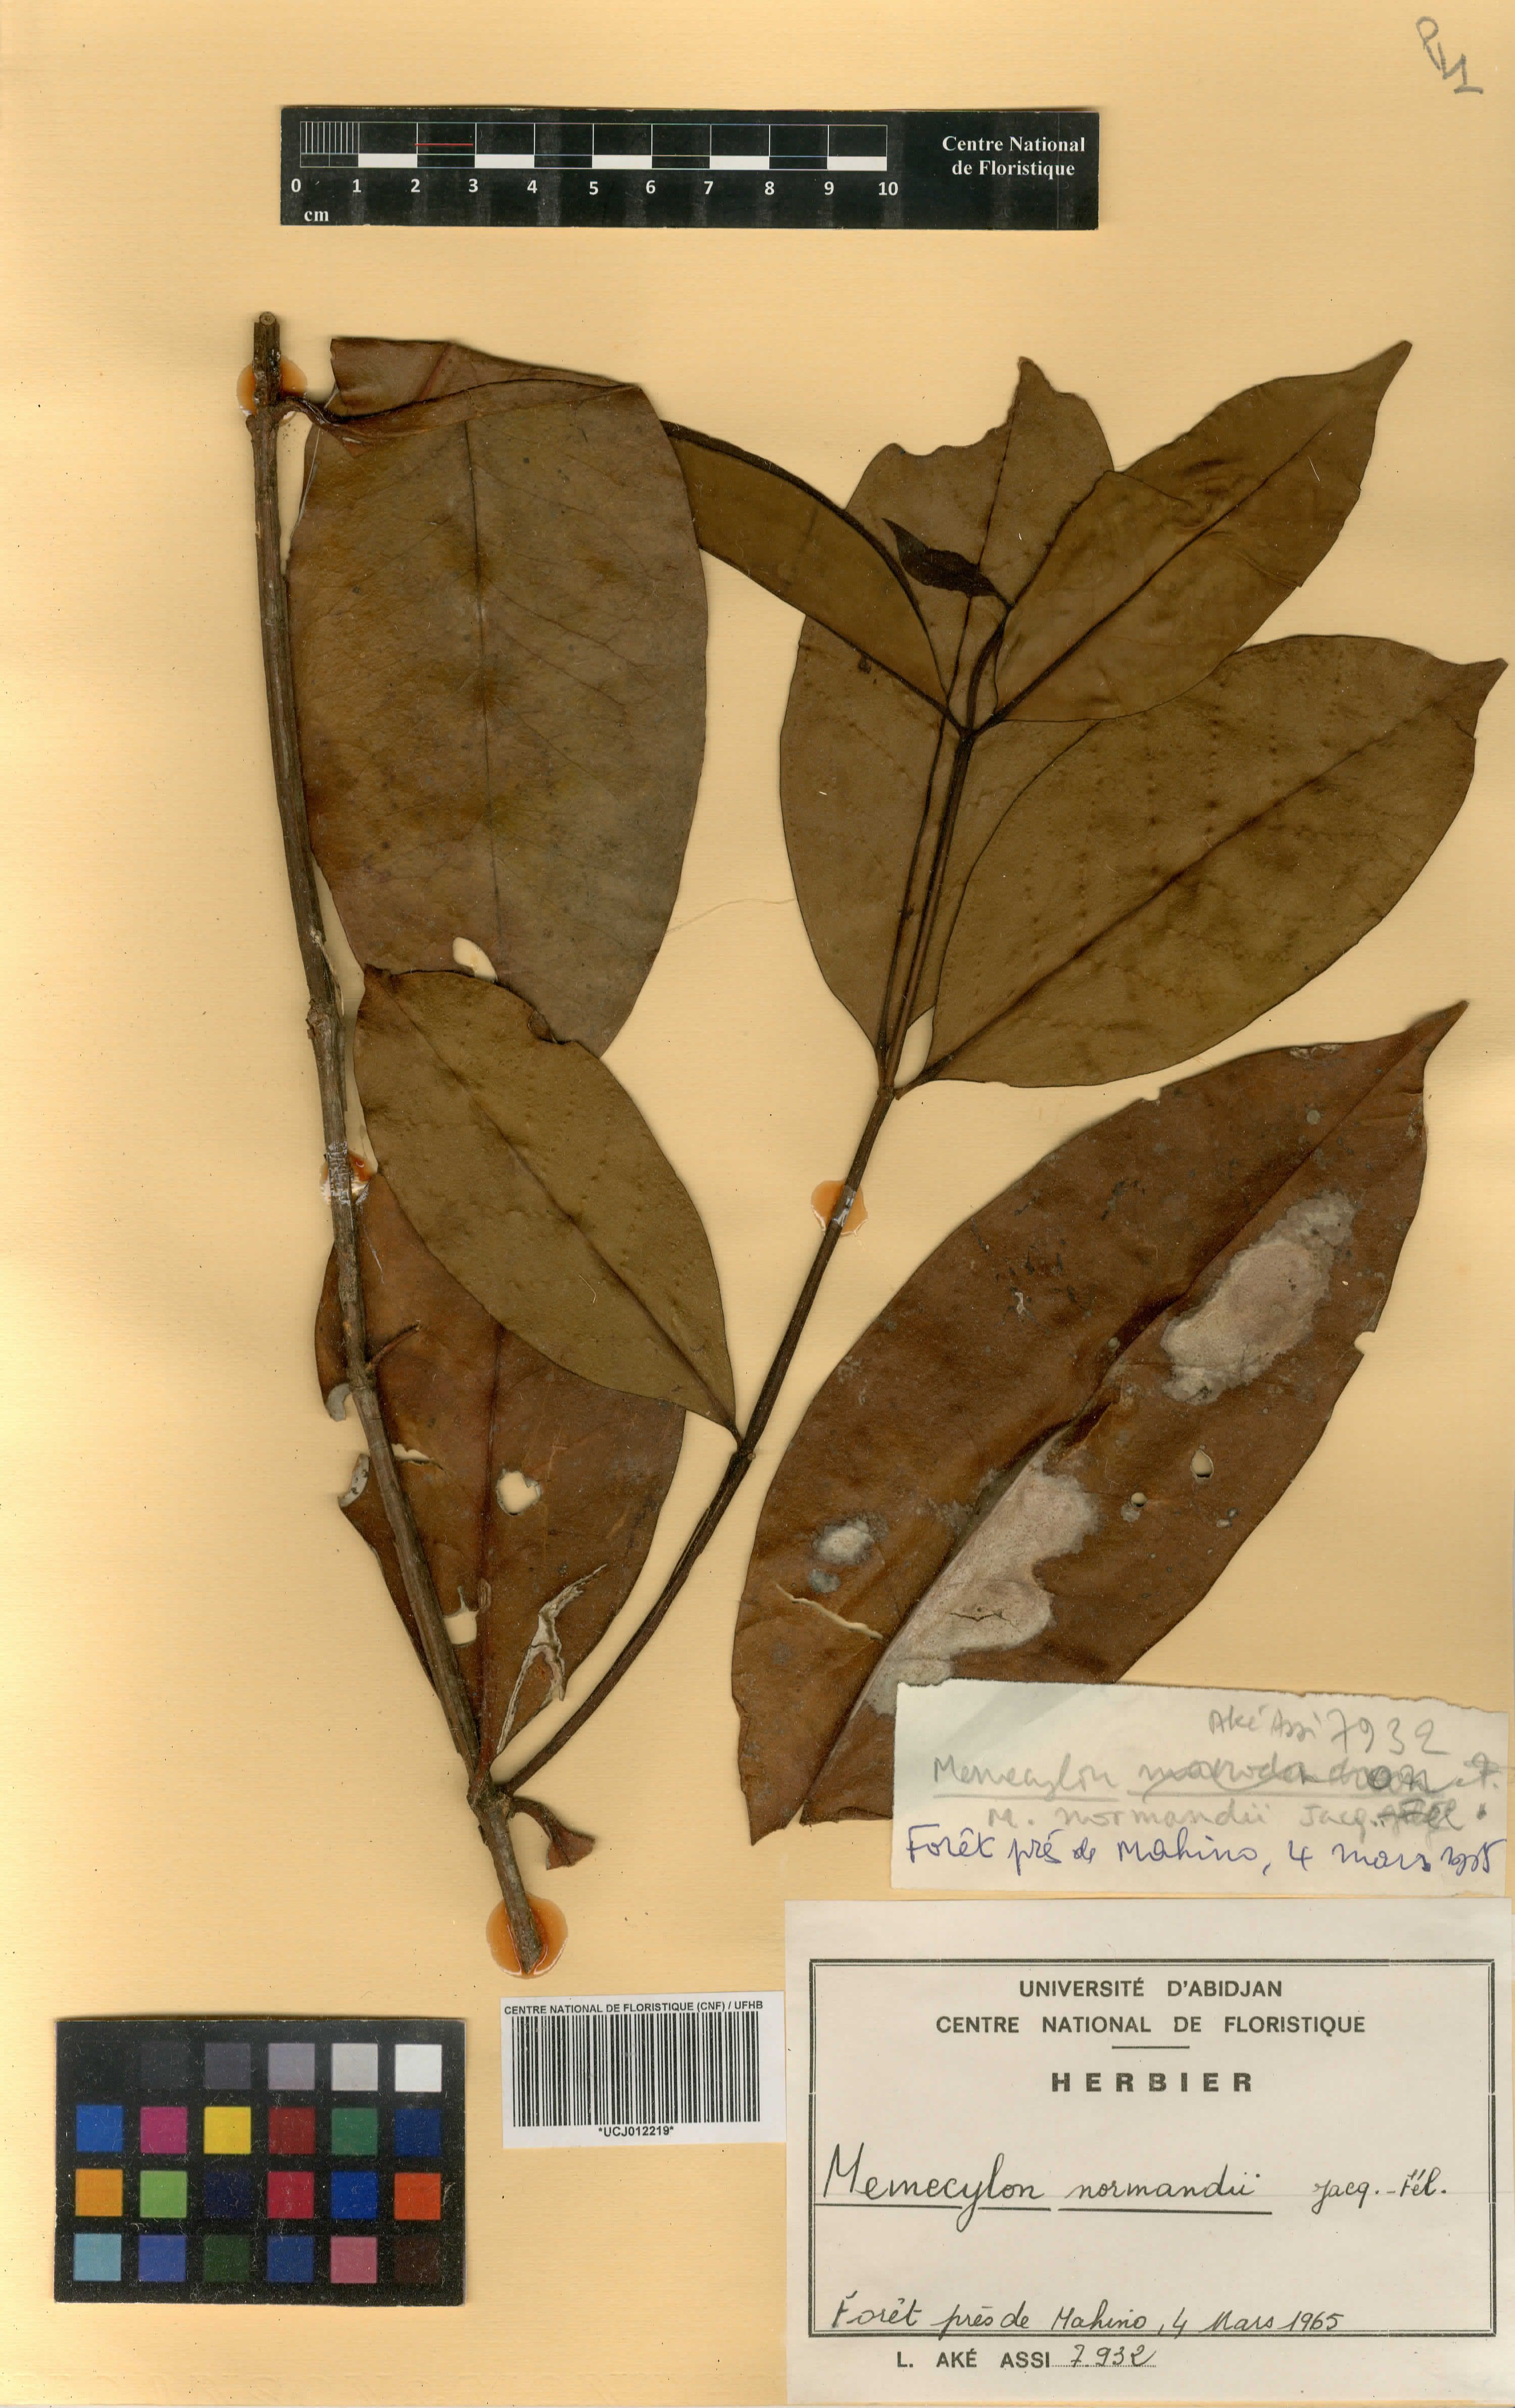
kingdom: Plantae
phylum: Tracheophyta
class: Magnoliopsida
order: Myrtales
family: Melastomataceae
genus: Memecylon
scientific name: Memecylon normandii
